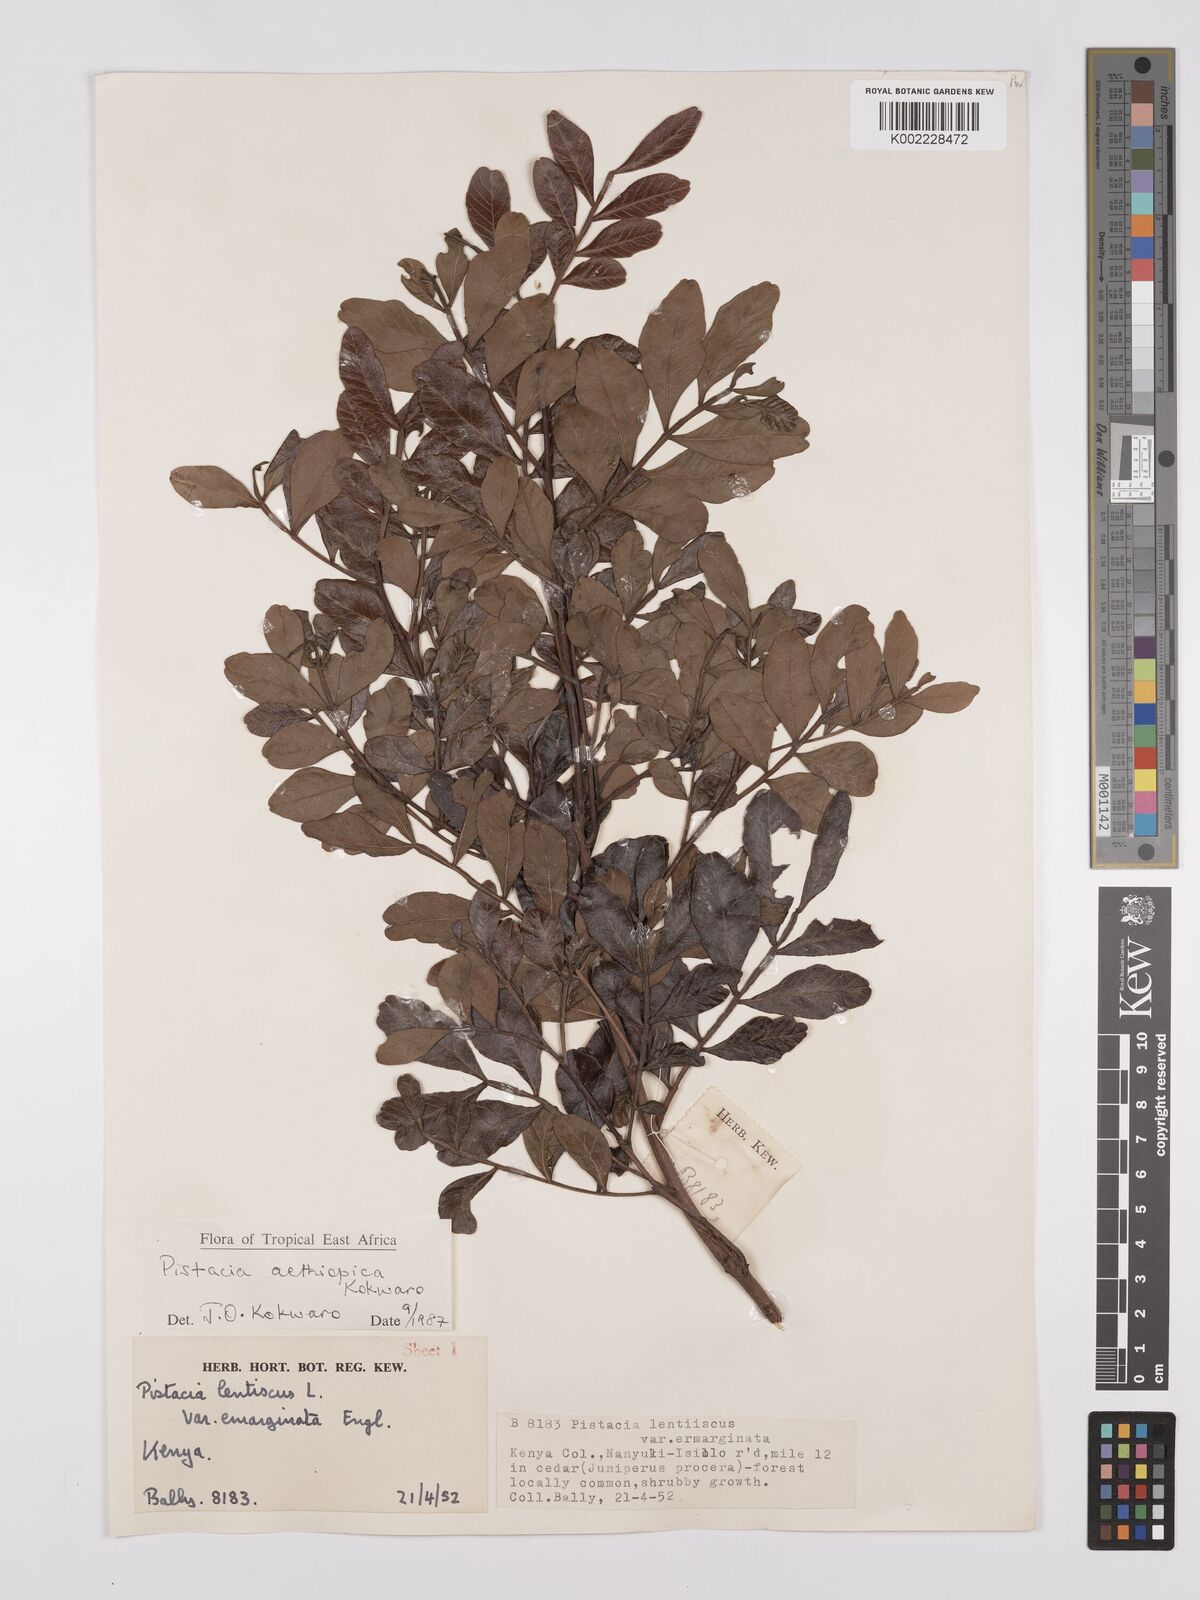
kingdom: Plantae
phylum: Tracheophyta
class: Magnoliopsida
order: Sapindales
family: Anacardiaceae
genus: Pistacia
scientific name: Pistacia lentiscus
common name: Lentisk
